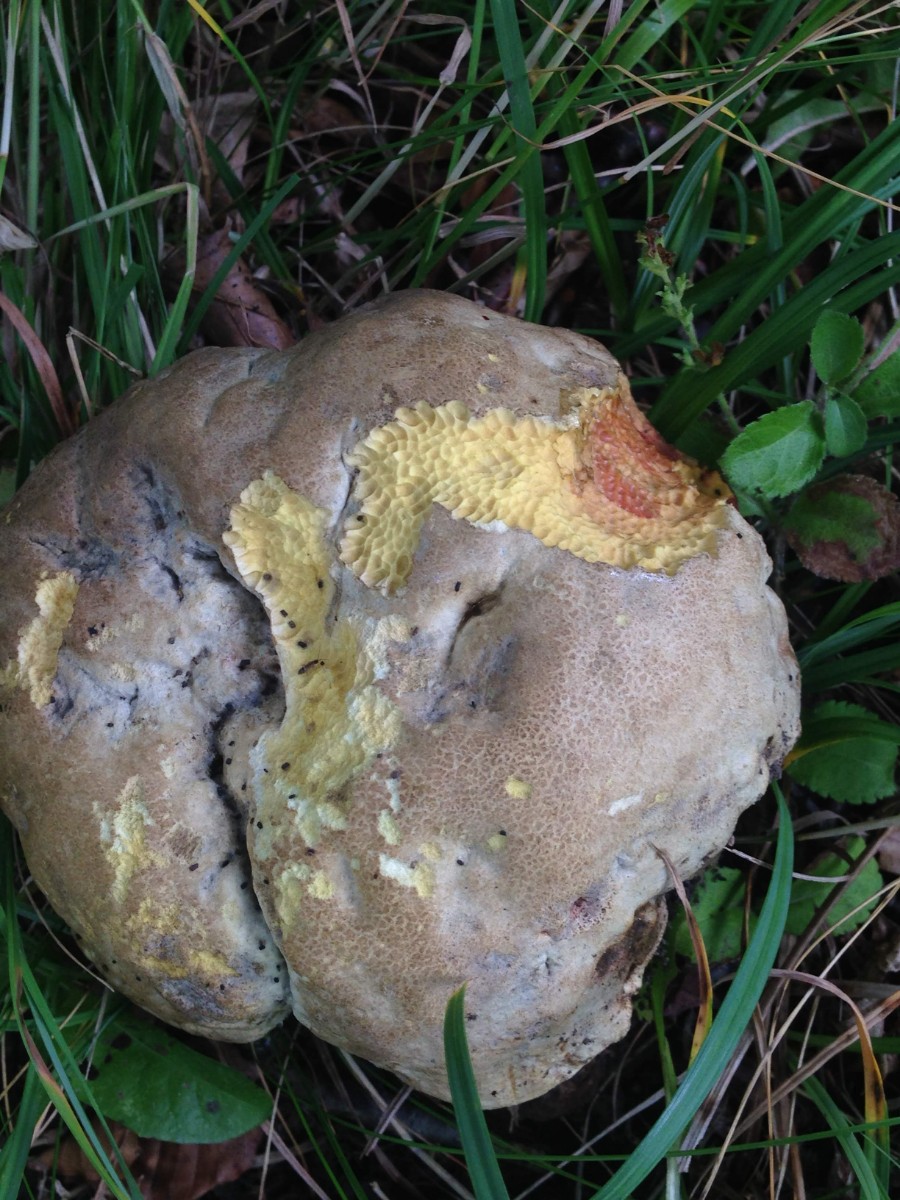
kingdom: Fungi
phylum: Basidiomycota
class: Agaricomycetes
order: Boletales
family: Boletaceae
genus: Rubroboletus
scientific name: Rubroboletus satanas
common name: Satans rørhat
